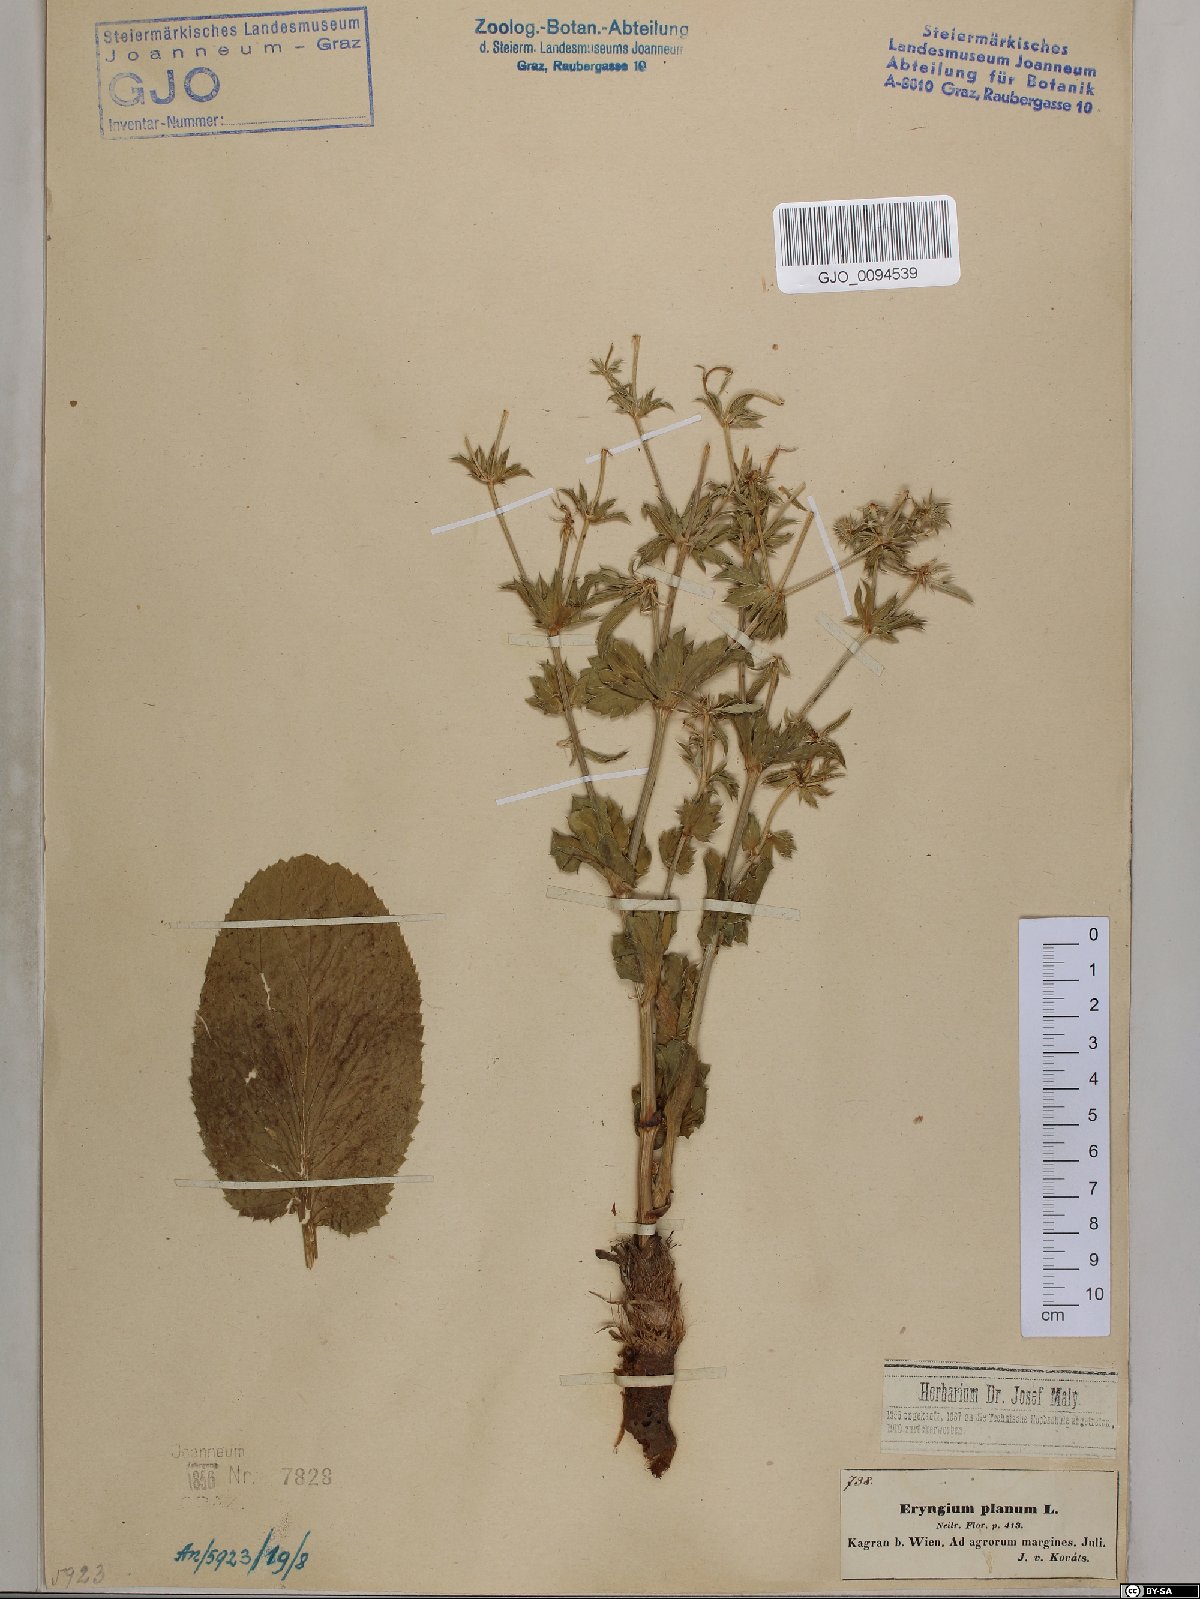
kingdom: Plantae
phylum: Tracheophyta
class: Magnoliopsida
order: Apiales
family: Apiaceae
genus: Eryngium
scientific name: Eryngium planum
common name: Blue eryngo
